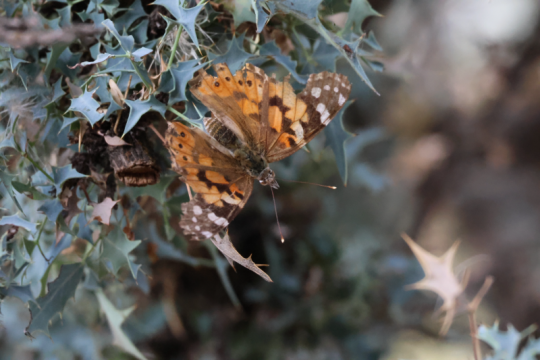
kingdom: Animalia
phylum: Arthropoda
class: Insecta
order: Lepidoptera
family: Nymphalidae
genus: Vanessa
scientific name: Vanessa cardui
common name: Painted Lady
